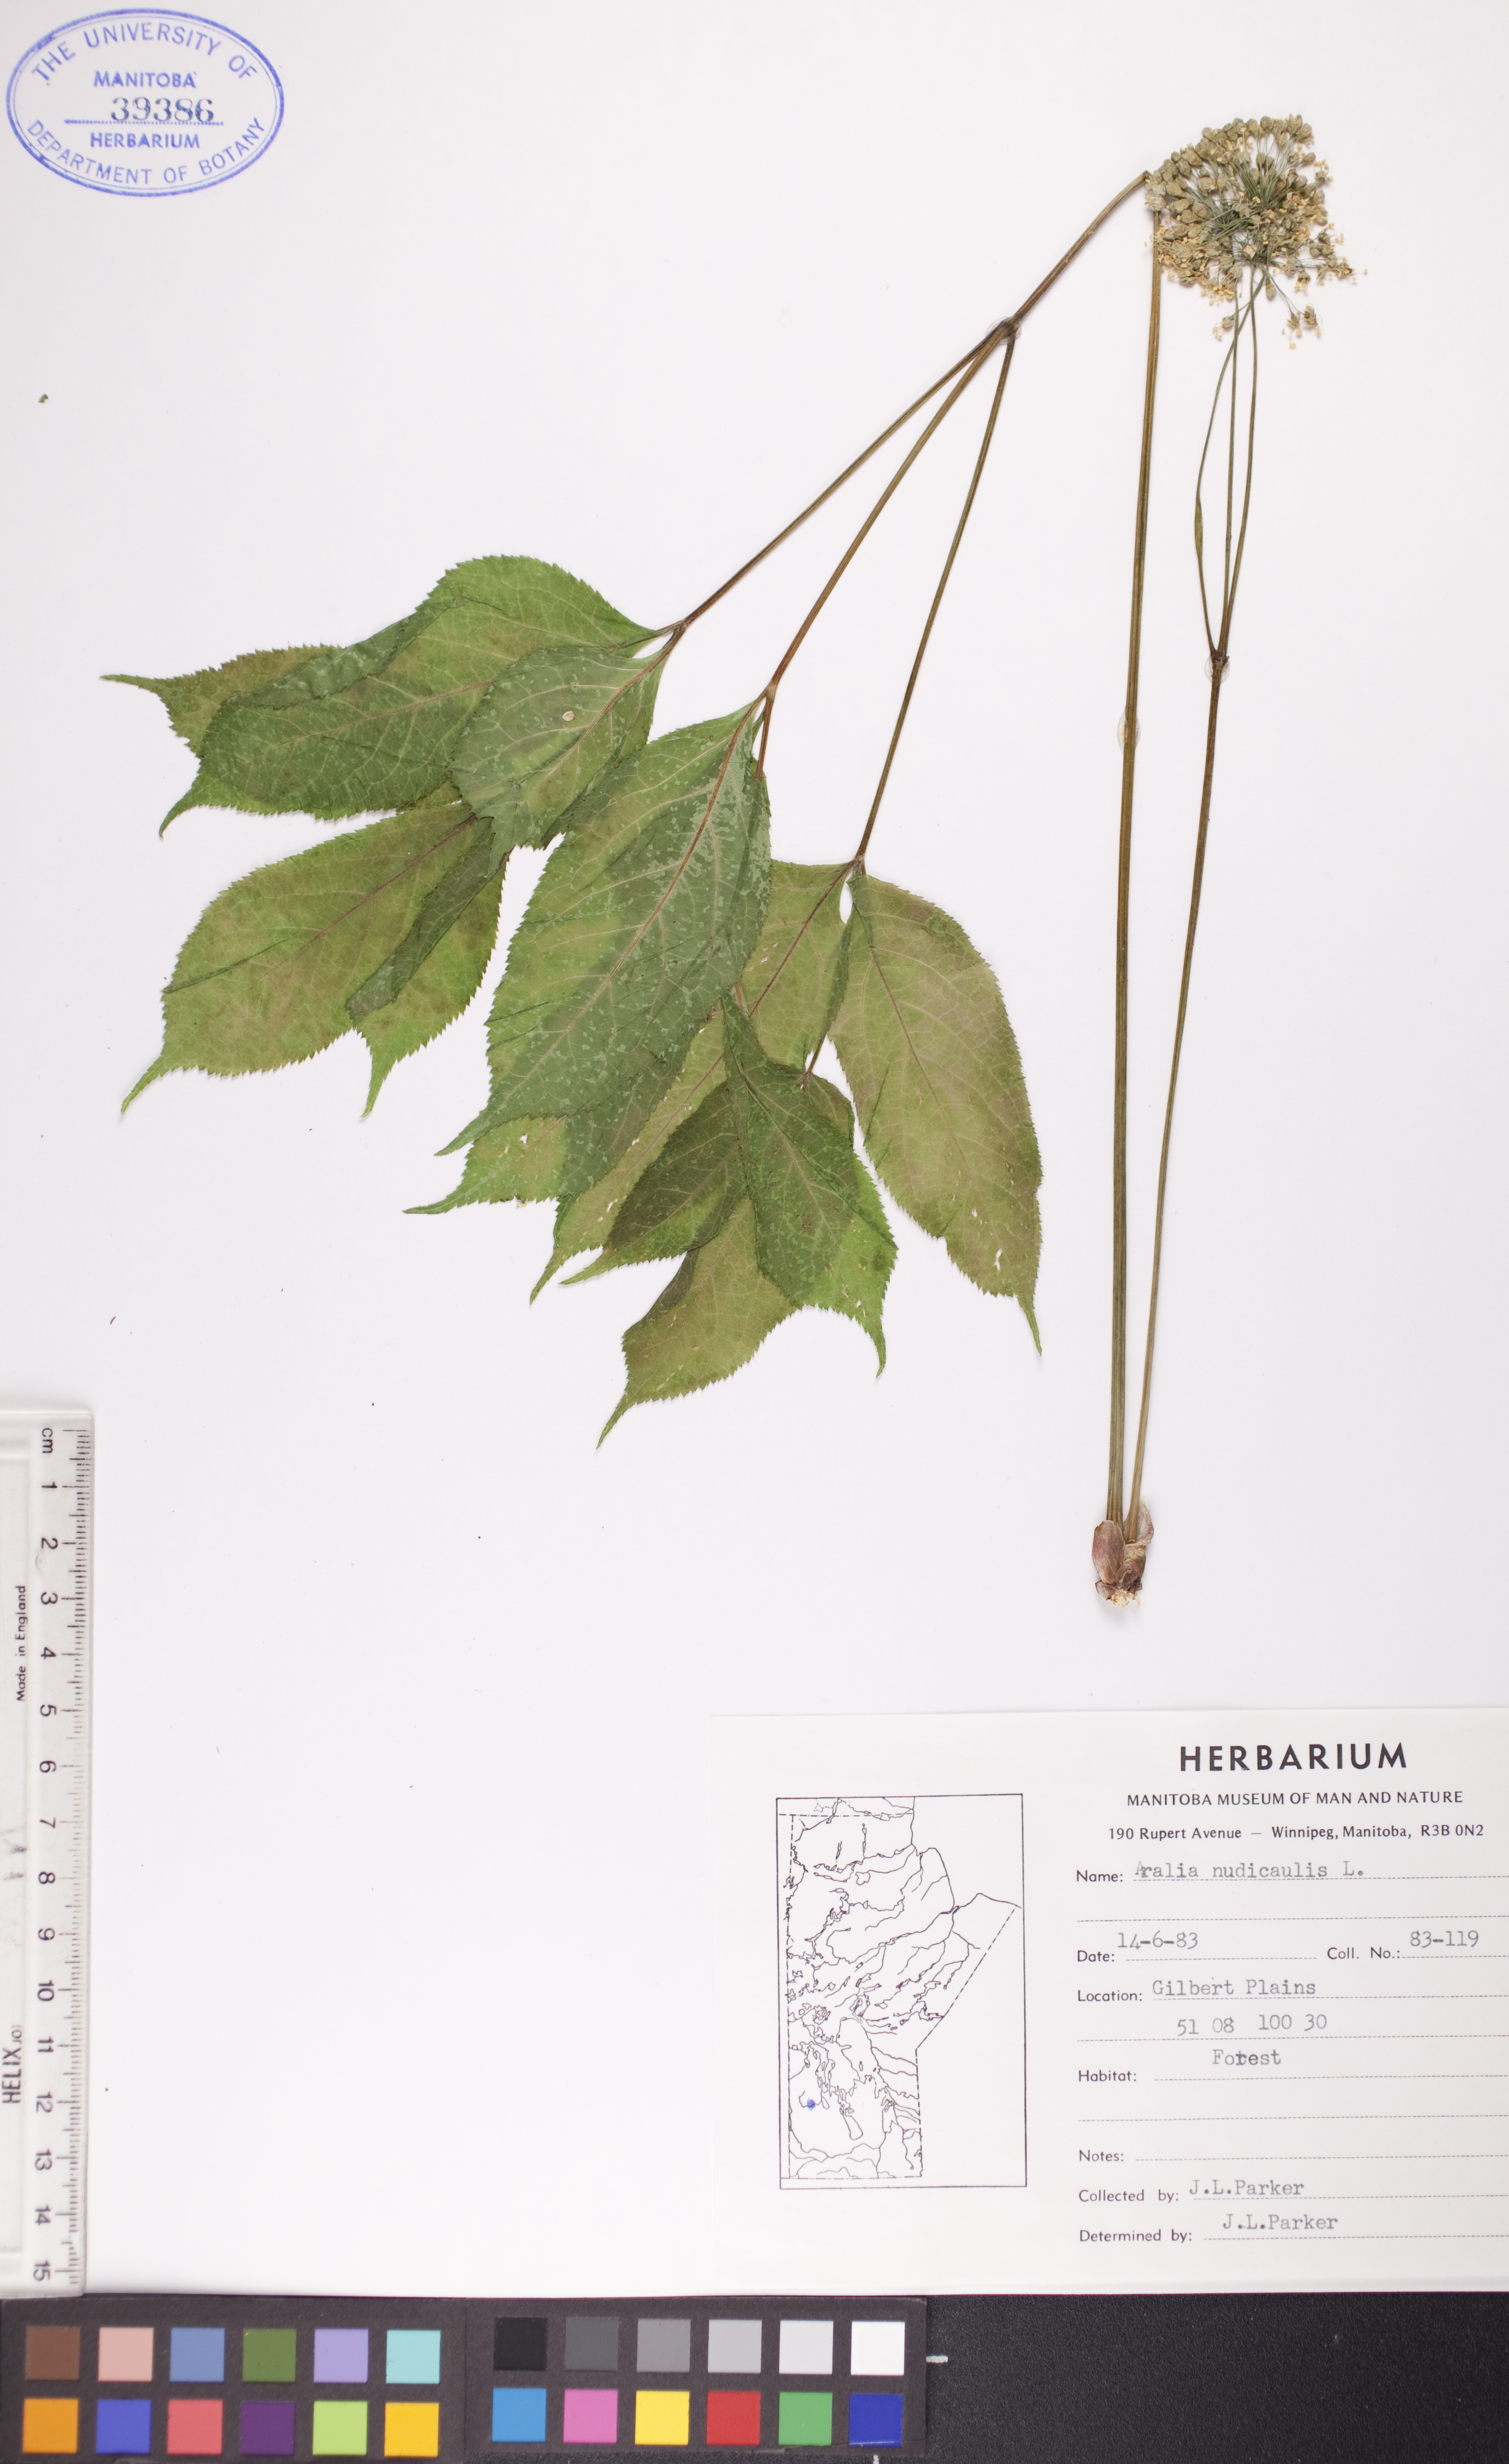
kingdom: Plantae
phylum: Tracheophyta
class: Magnoliopsida
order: Apiales
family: Araliaceae
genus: Aralia
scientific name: Aralia nudicaulis
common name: Wild sarsaparilla
